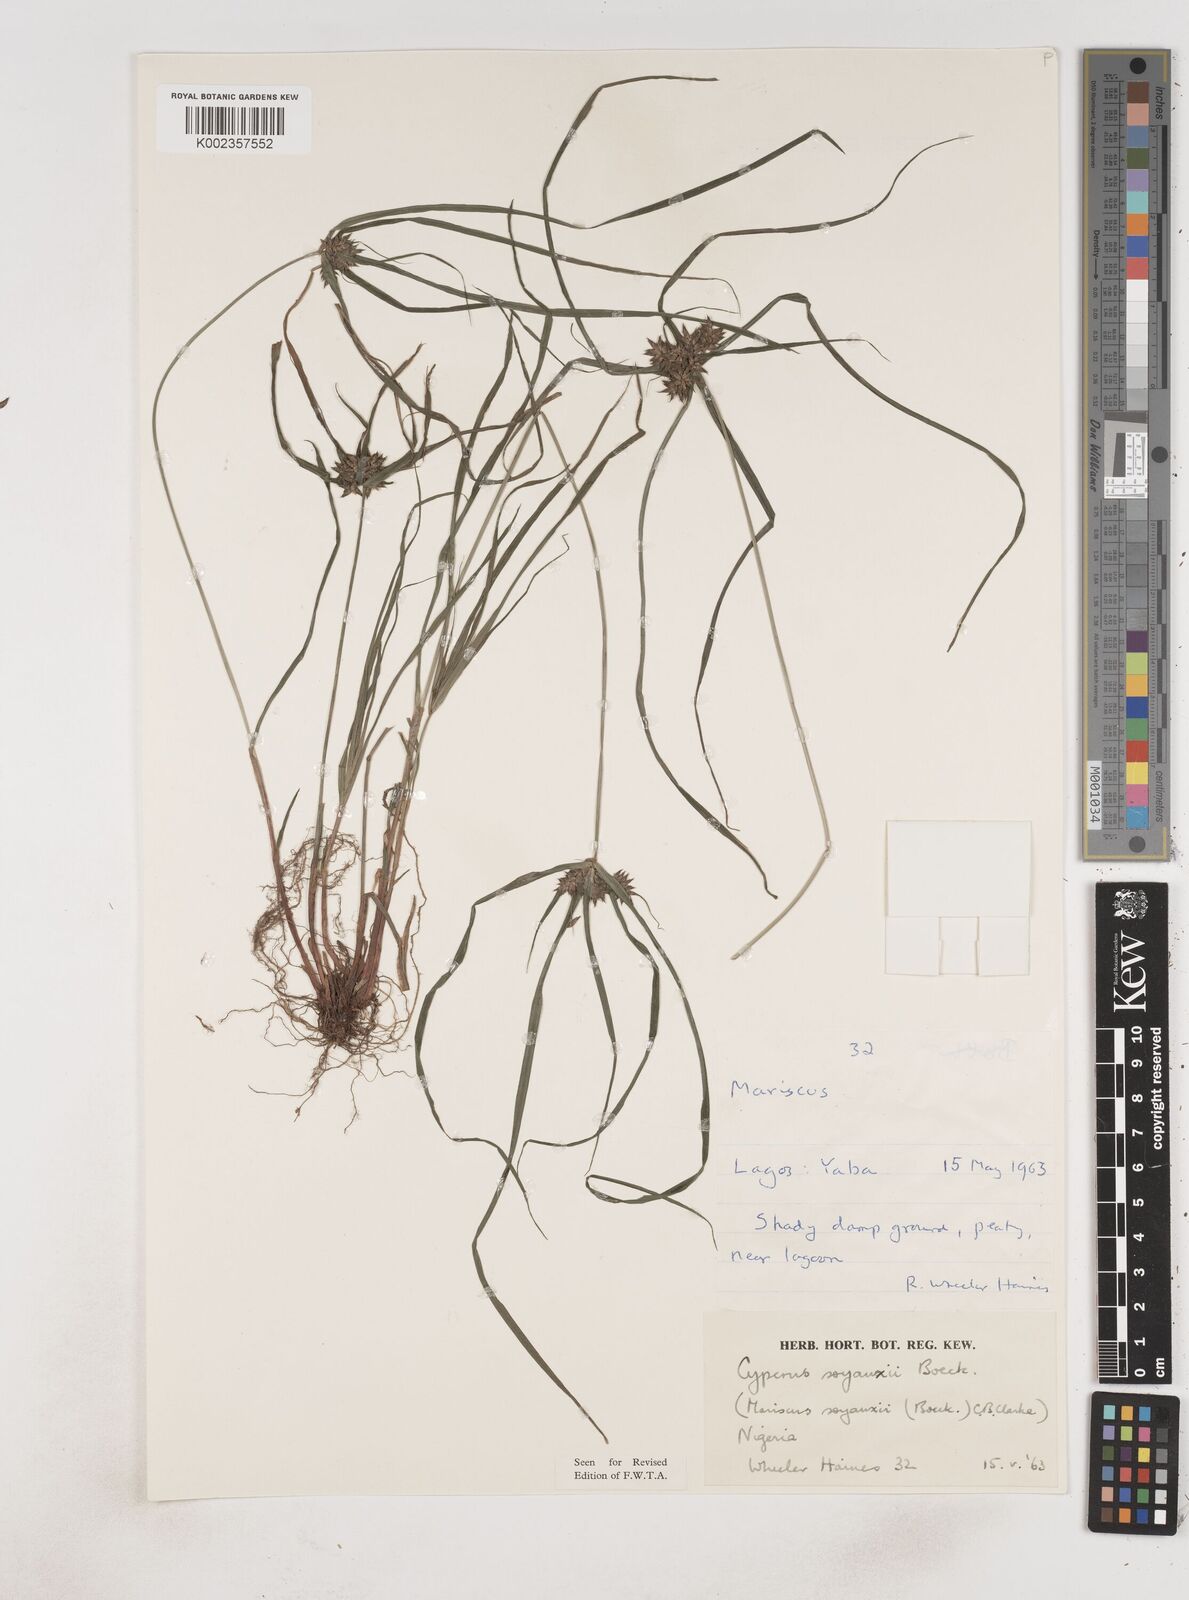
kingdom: Plantae
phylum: Tracheophyta
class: Liliopsida
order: Poales
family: Cyperaceae
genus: Cyperus
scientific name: Cyperus soyauxii
